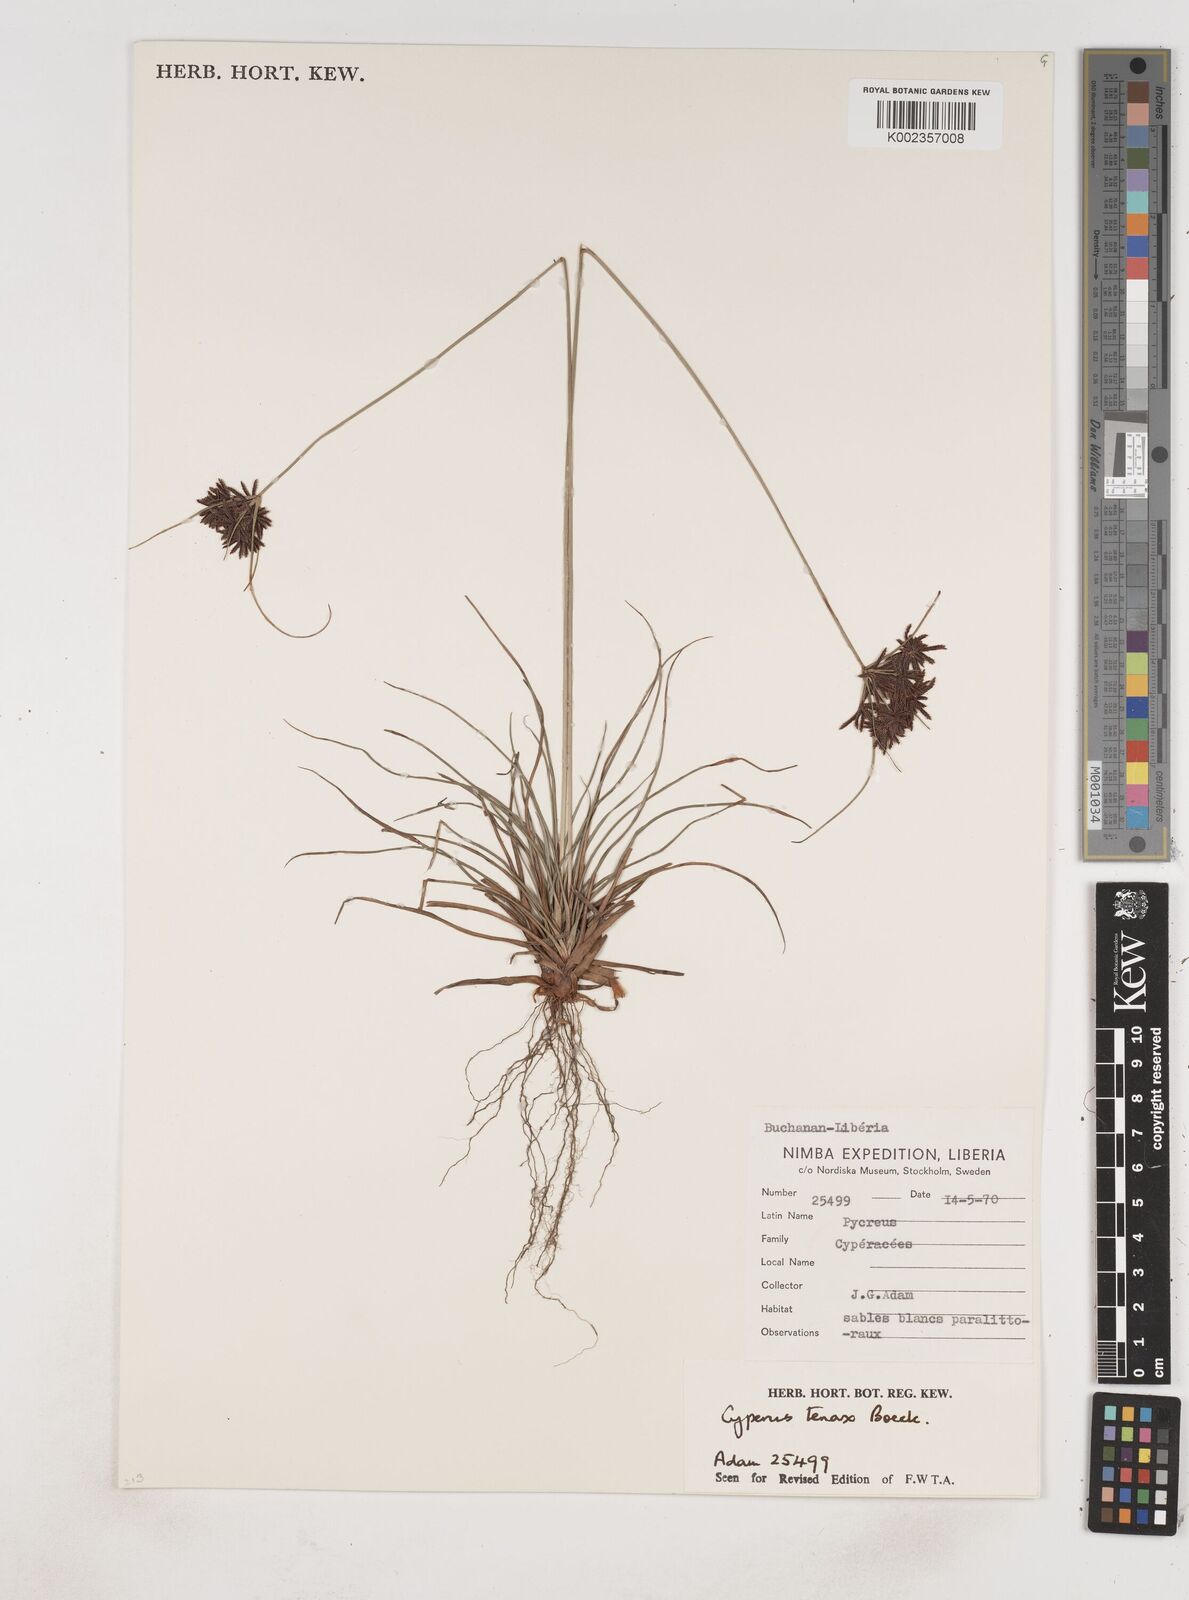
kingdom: Plantae
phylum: Tracheophyta
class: Liliopsida
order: Poales
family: Cyperaceae
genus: Cyperus
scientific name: Cyperus tenax
